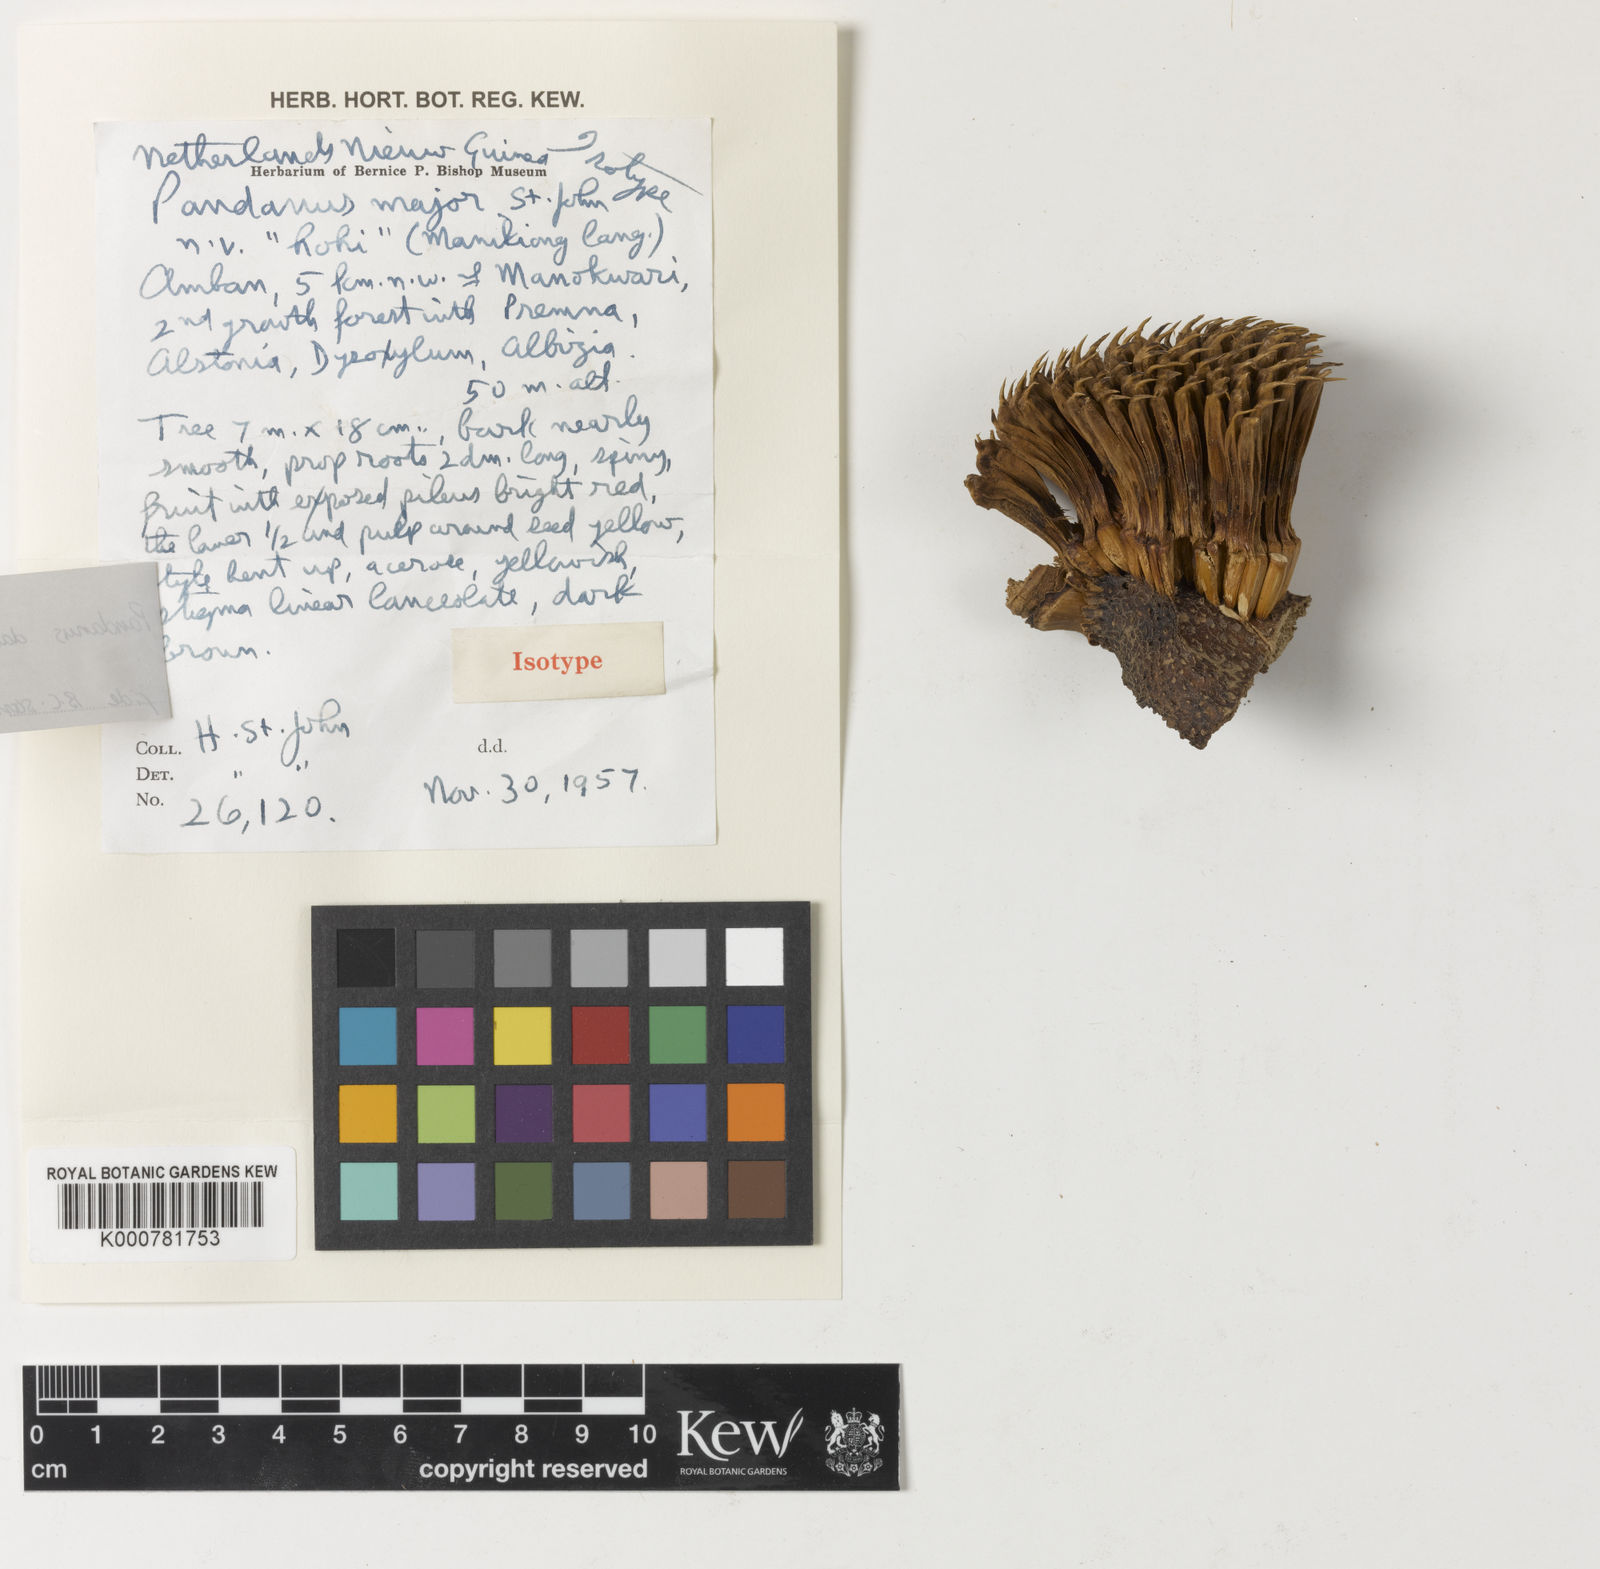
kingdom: Plantae
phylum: Tracheophyta
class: Liliopsida
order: Pandanales
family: Pandanaceae
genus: Benstonea
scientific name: Benstonea stenocarpa
